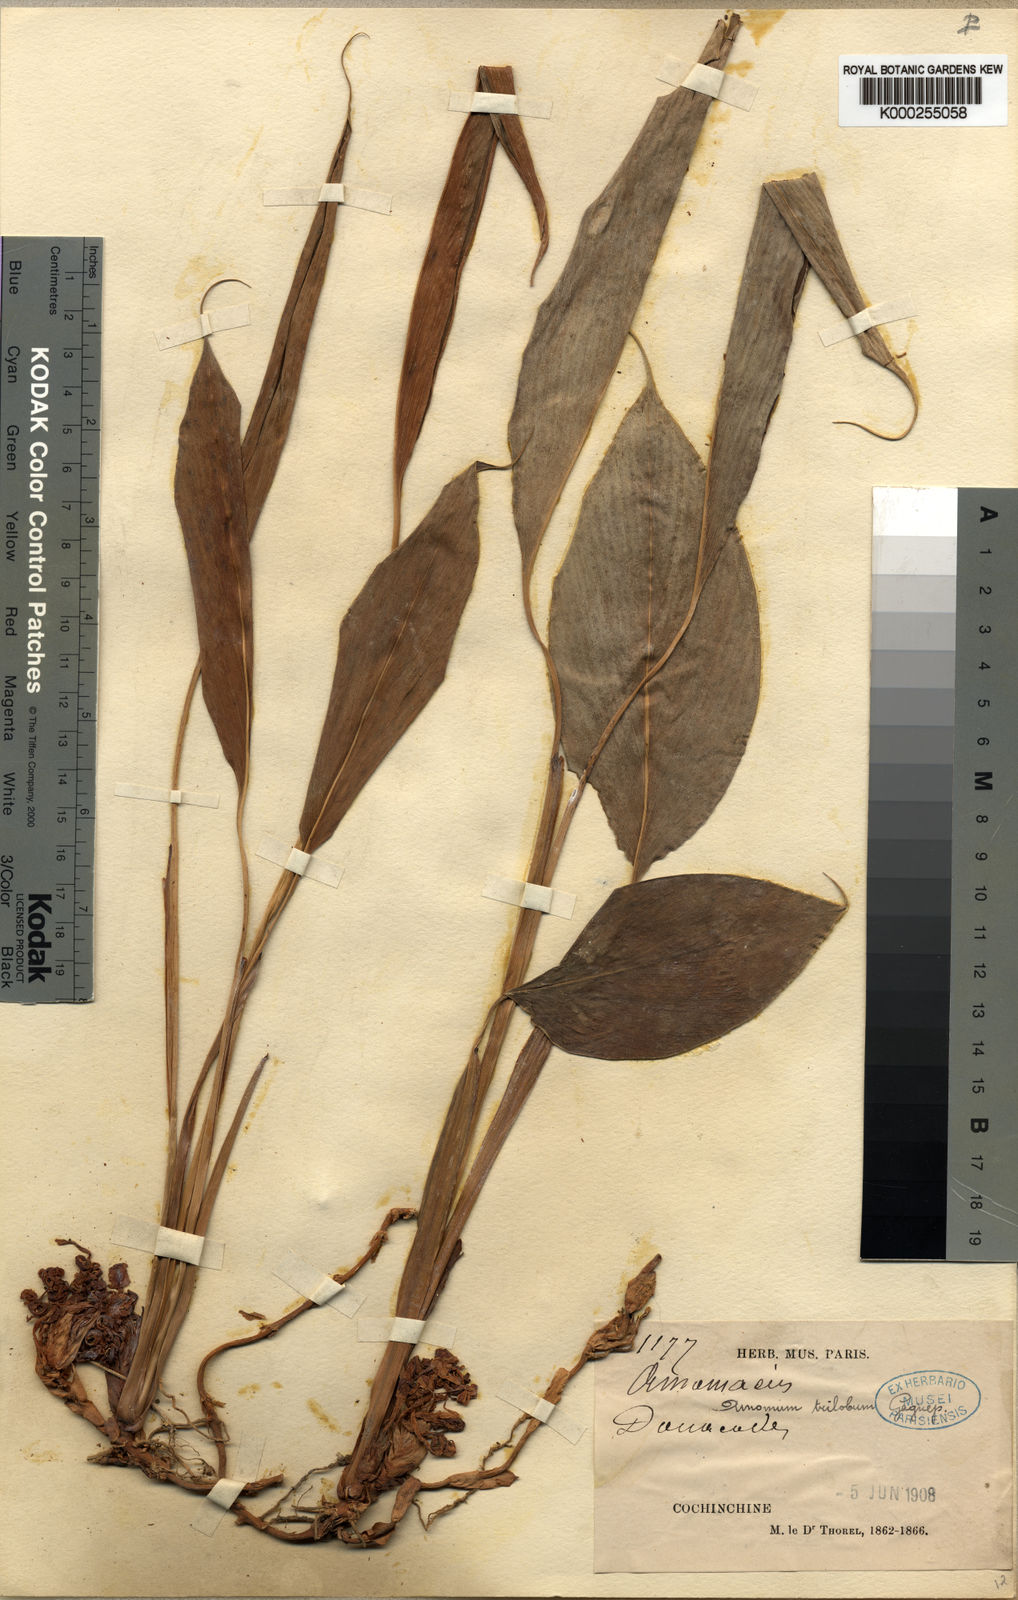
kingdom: Plantae
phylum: Tracheophyta
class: Liliopsida
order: Zingiberales
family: Zingiberaceae
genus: Amomum
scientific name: Amomum trilobum
